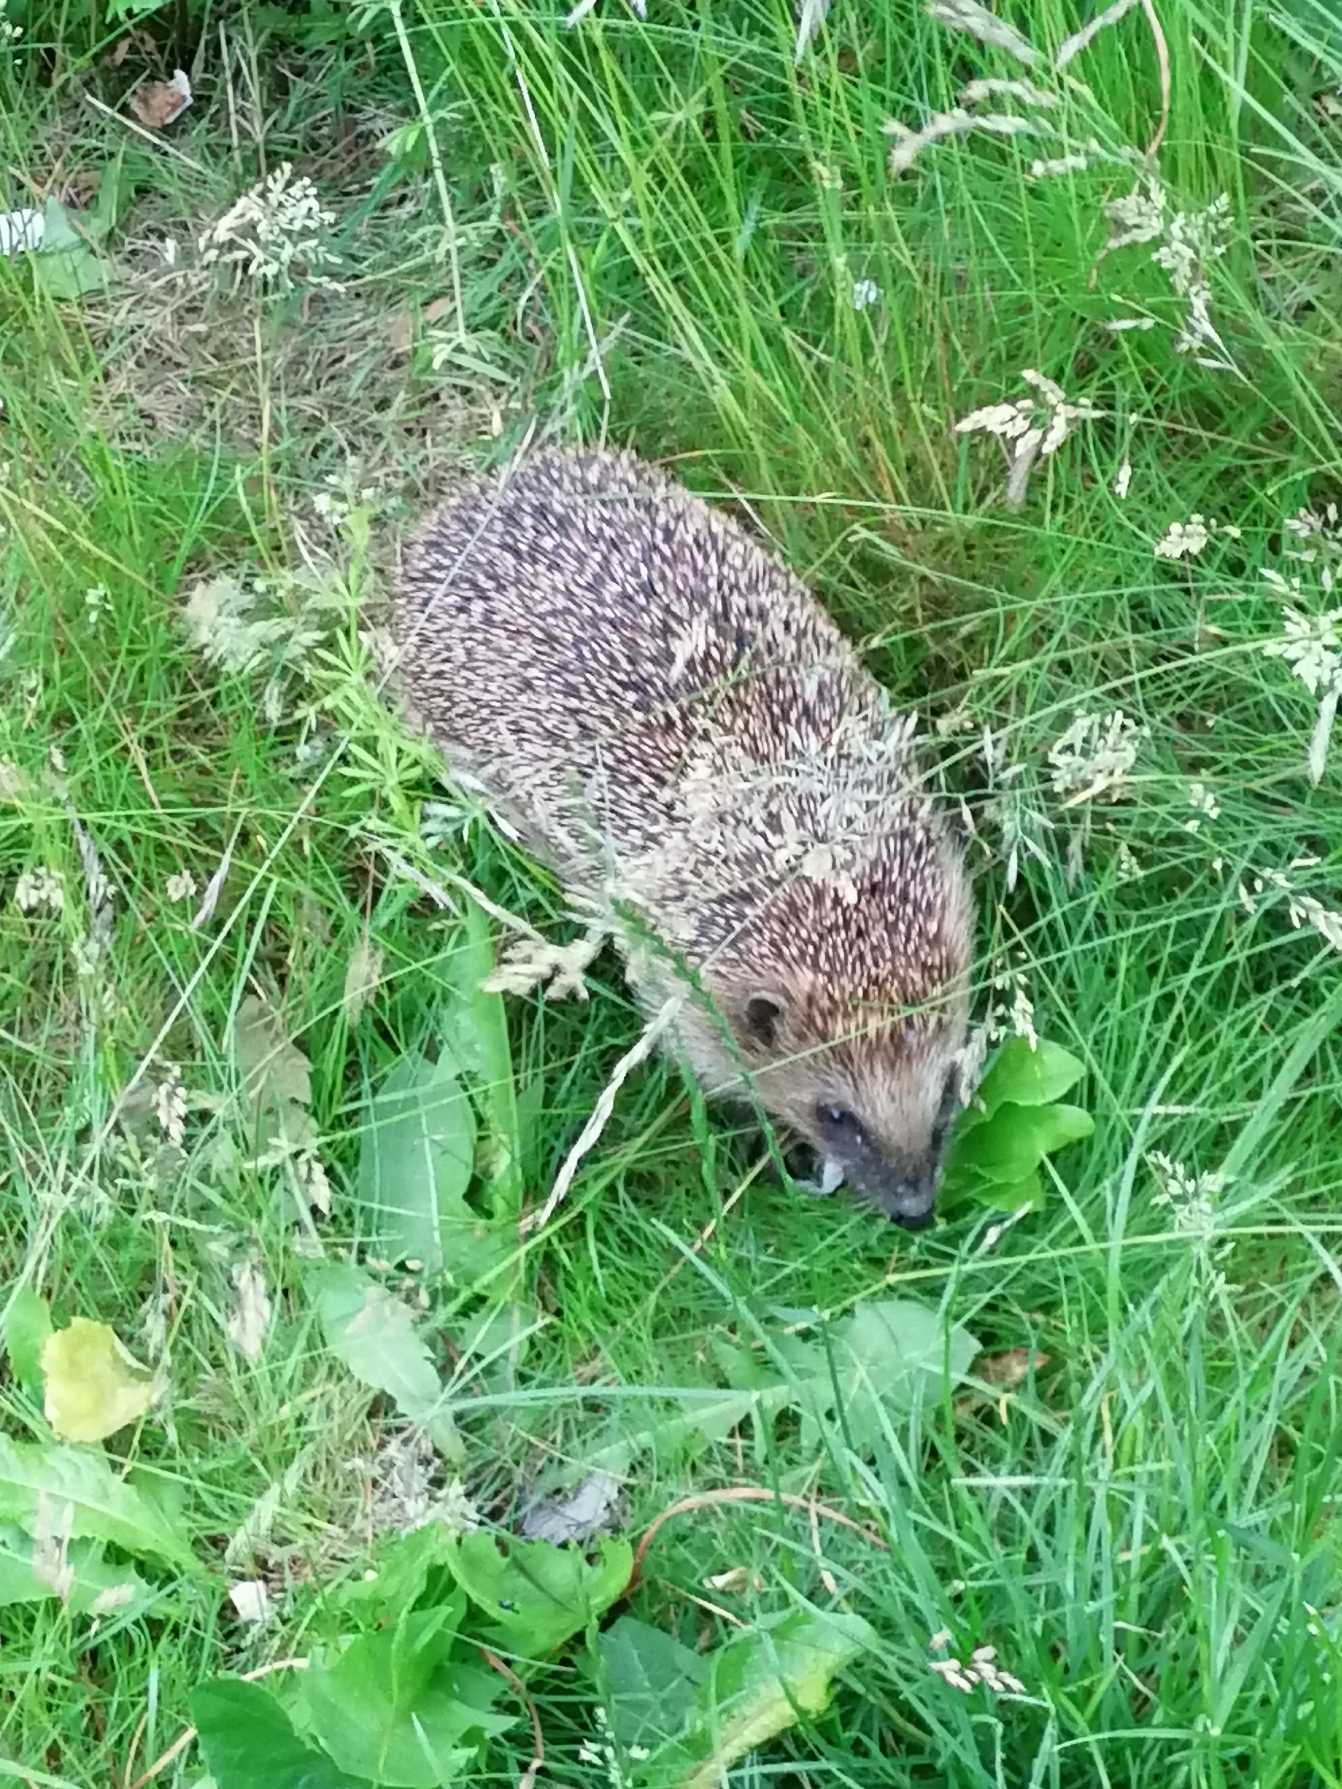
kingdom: Animalia
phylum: Chordata
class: Mammalia
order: Erinaceomorpha
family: Erinaceidae
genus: Erinaceus
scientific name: Erinaceus europaeus
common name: Pindsvin
